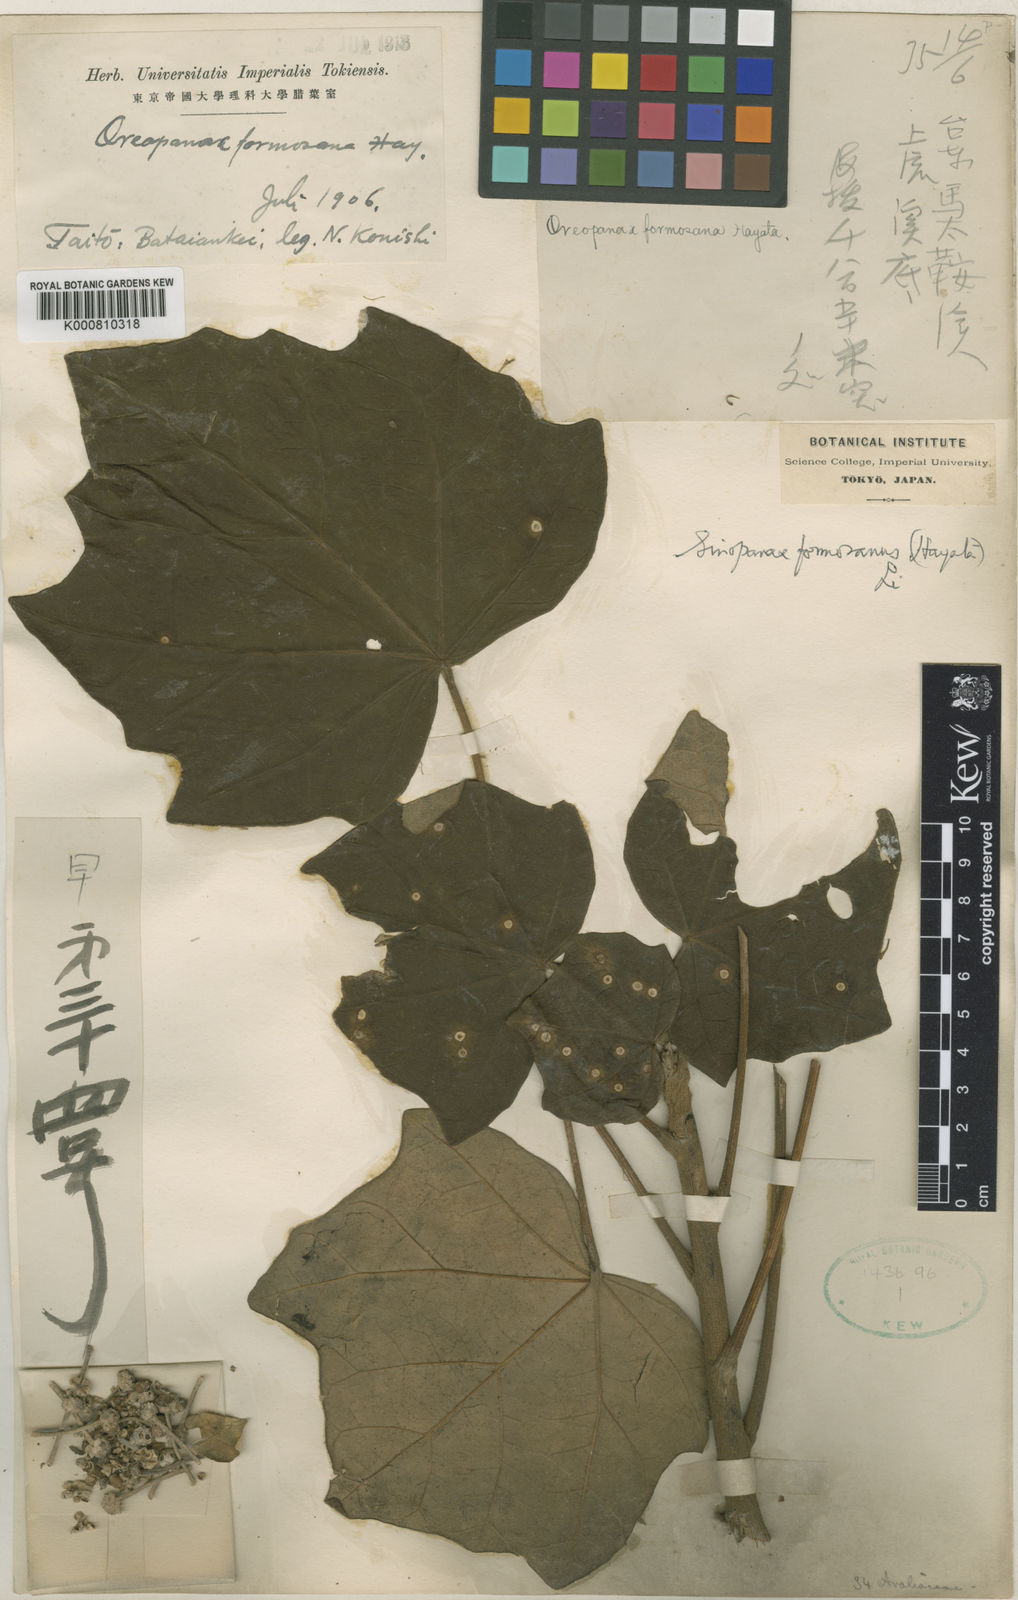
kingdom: Plantae
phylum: Tracheophyta
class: Magnoliopsida
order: Apiales
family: Araliaceae
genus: Sinopanax
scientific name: Sinopanax formosanus
